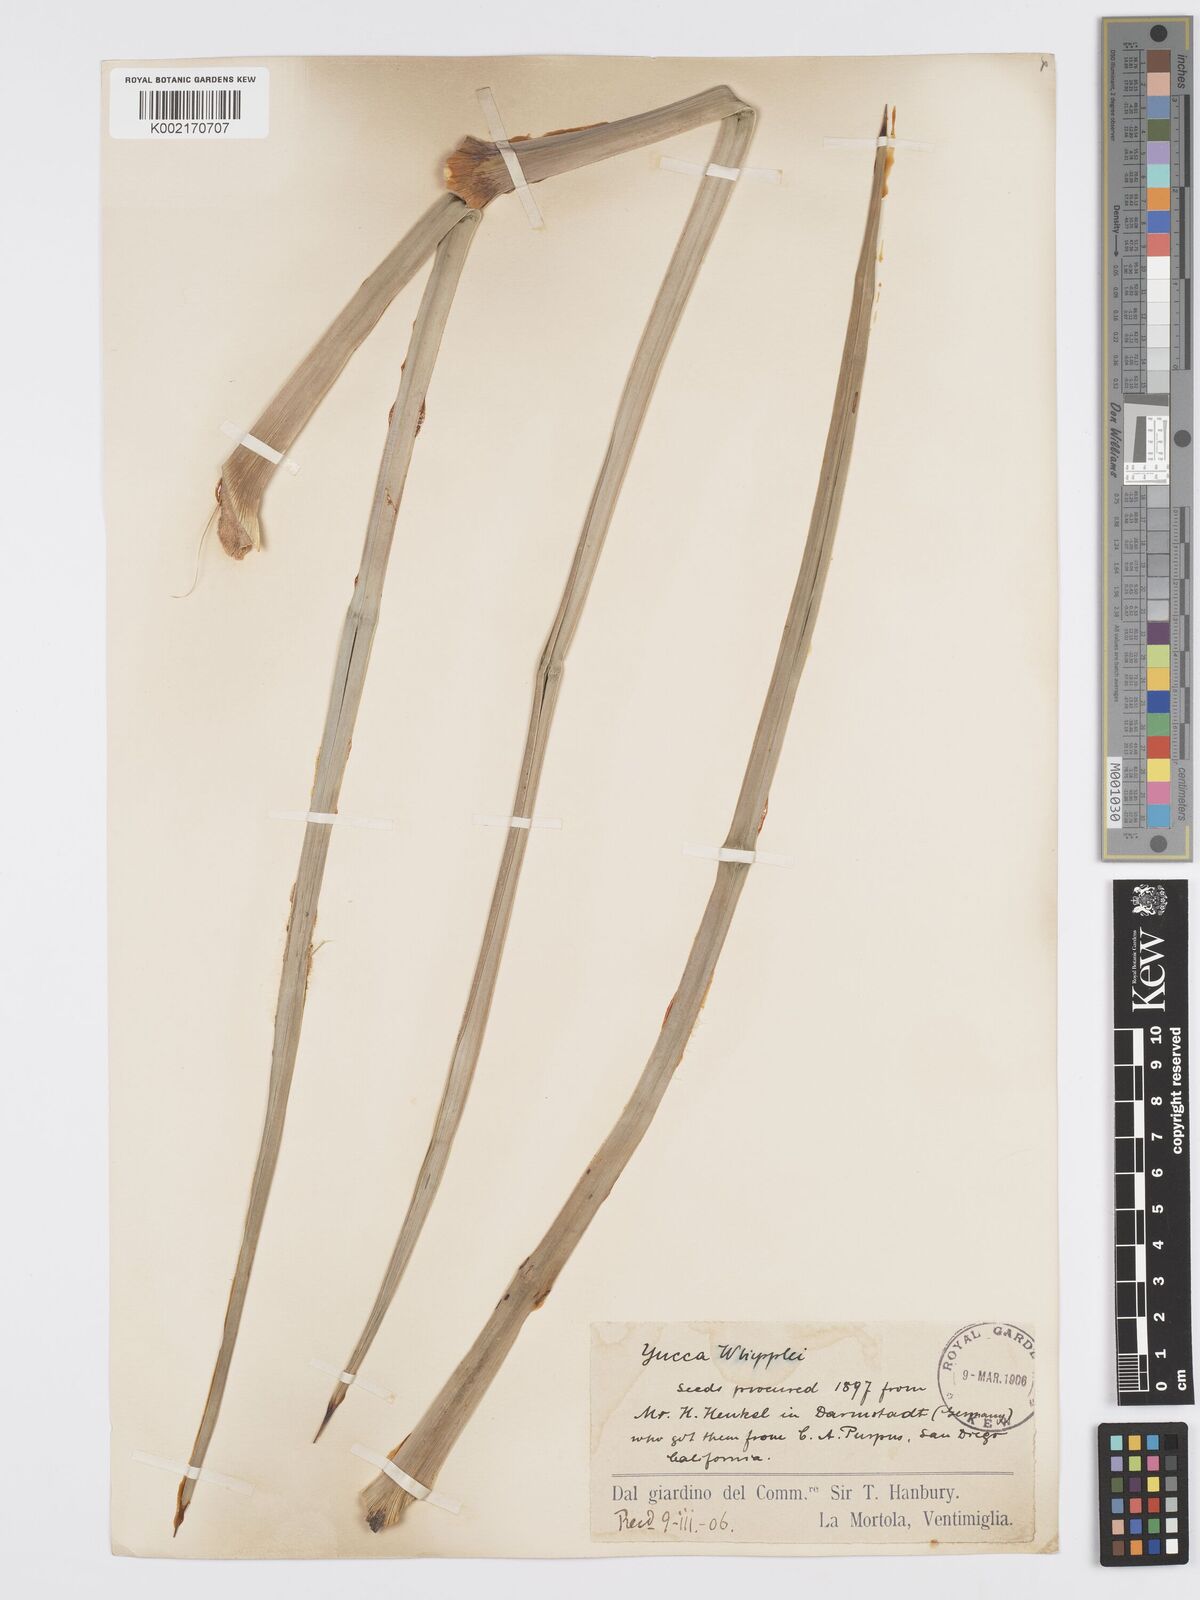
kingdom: Plantae
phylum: Tracheophyta
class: Liliopsida
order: Asparagales
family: Asparagaceae
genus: Hesperoyucca
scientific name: Hesperoyucca whipplei
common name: Our lord's-candle
